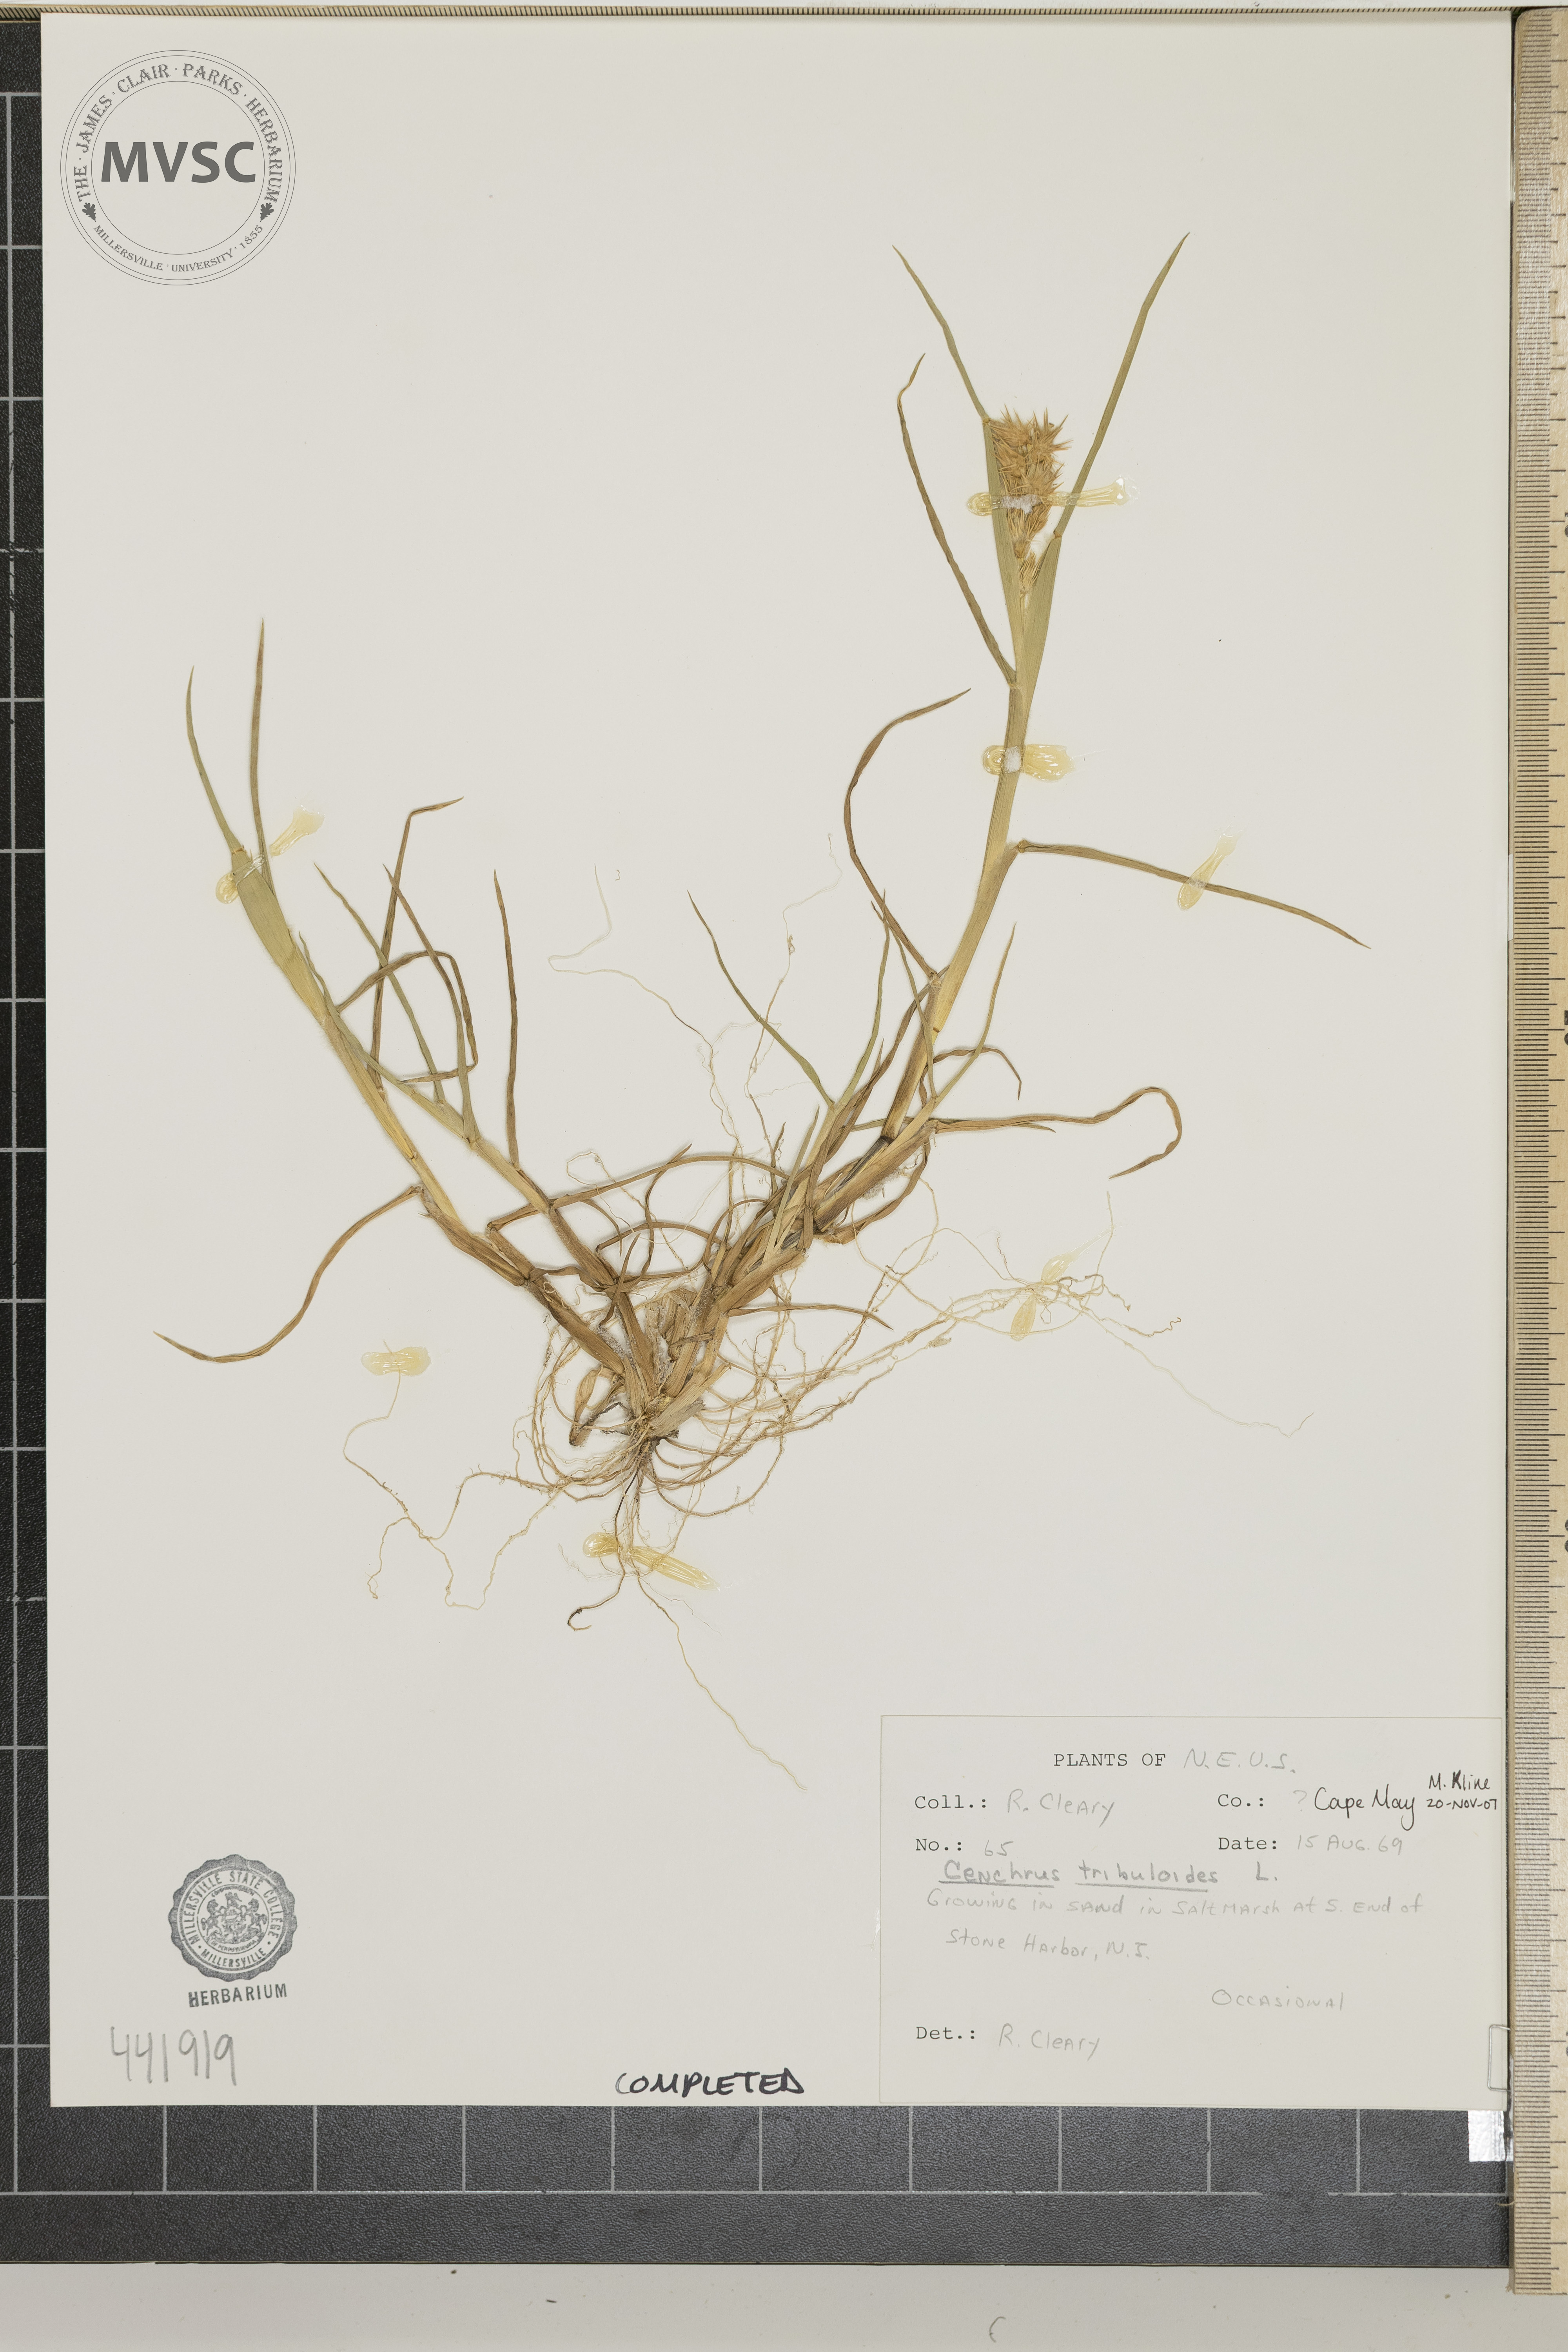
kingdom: Plantae
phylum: Tracheophyta
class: Liliopsida
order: Poales
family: Poaceae
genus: Cenchrus
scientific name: Cenchrus tribuloides
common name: Dune sandbur
